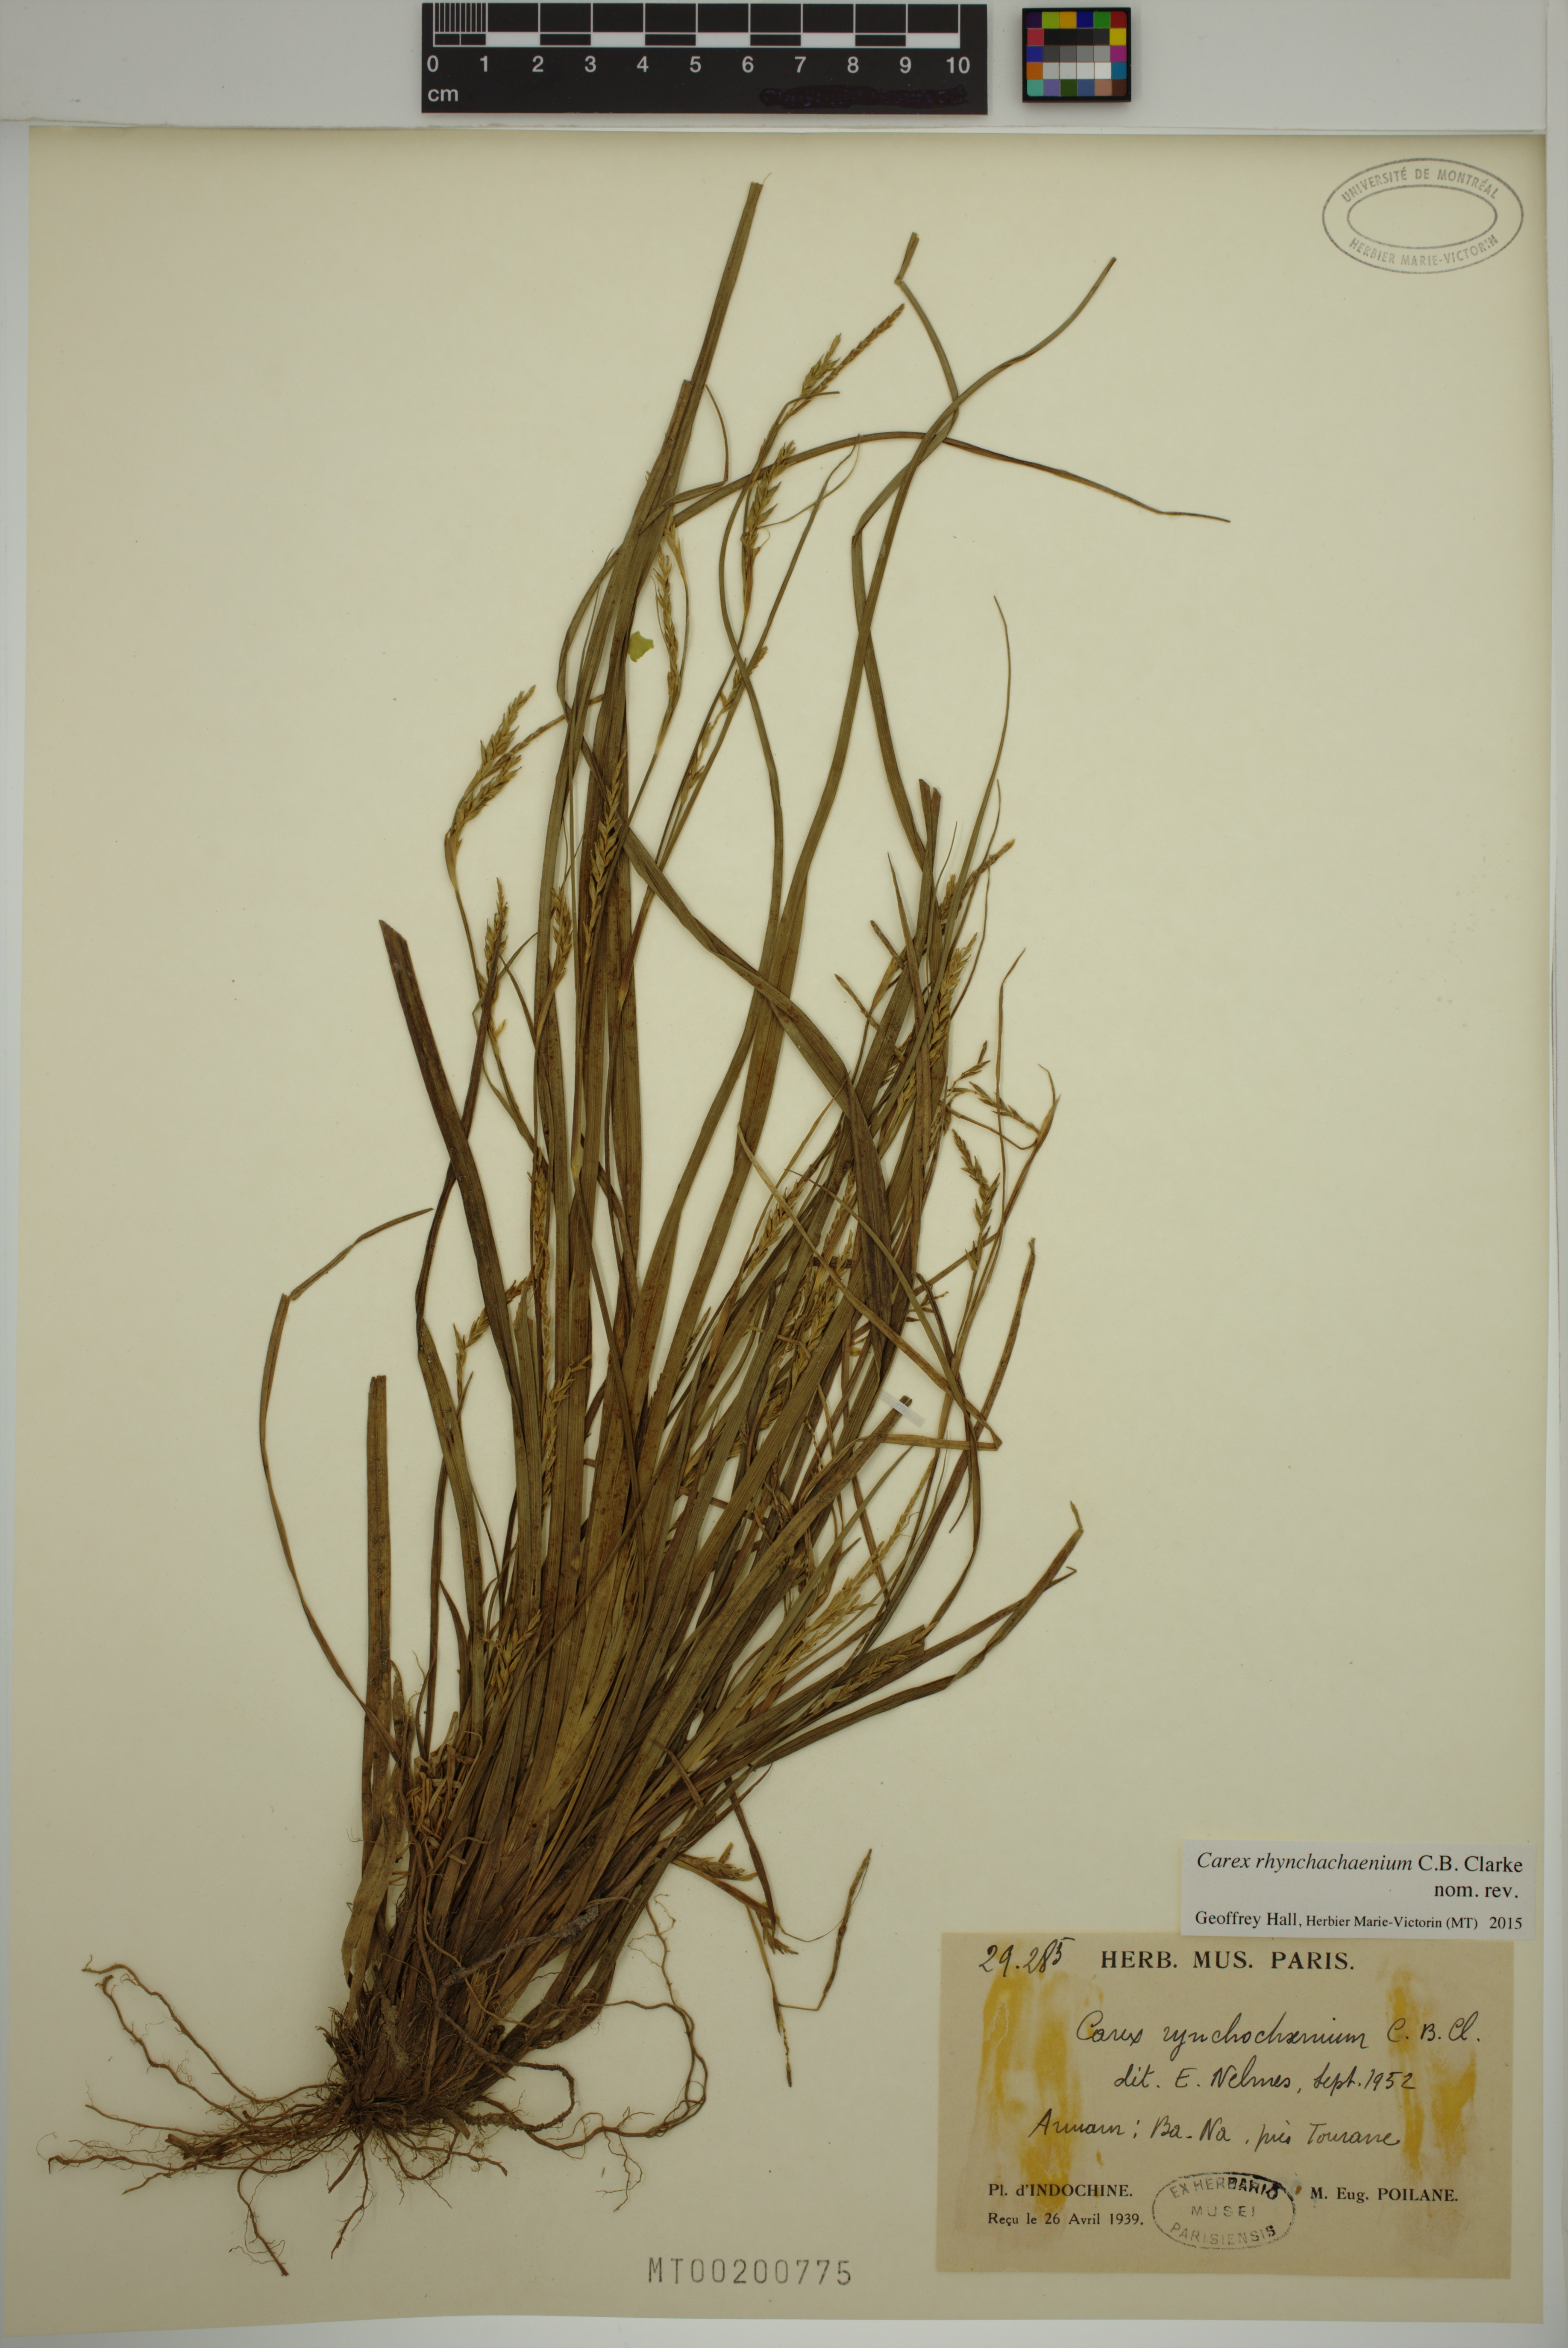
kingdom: Plantae
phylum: Tracheophyta
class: Liliopsida
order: Poales
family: Cyperaceae
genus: Carex
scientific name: Carex rhynchachaenium
